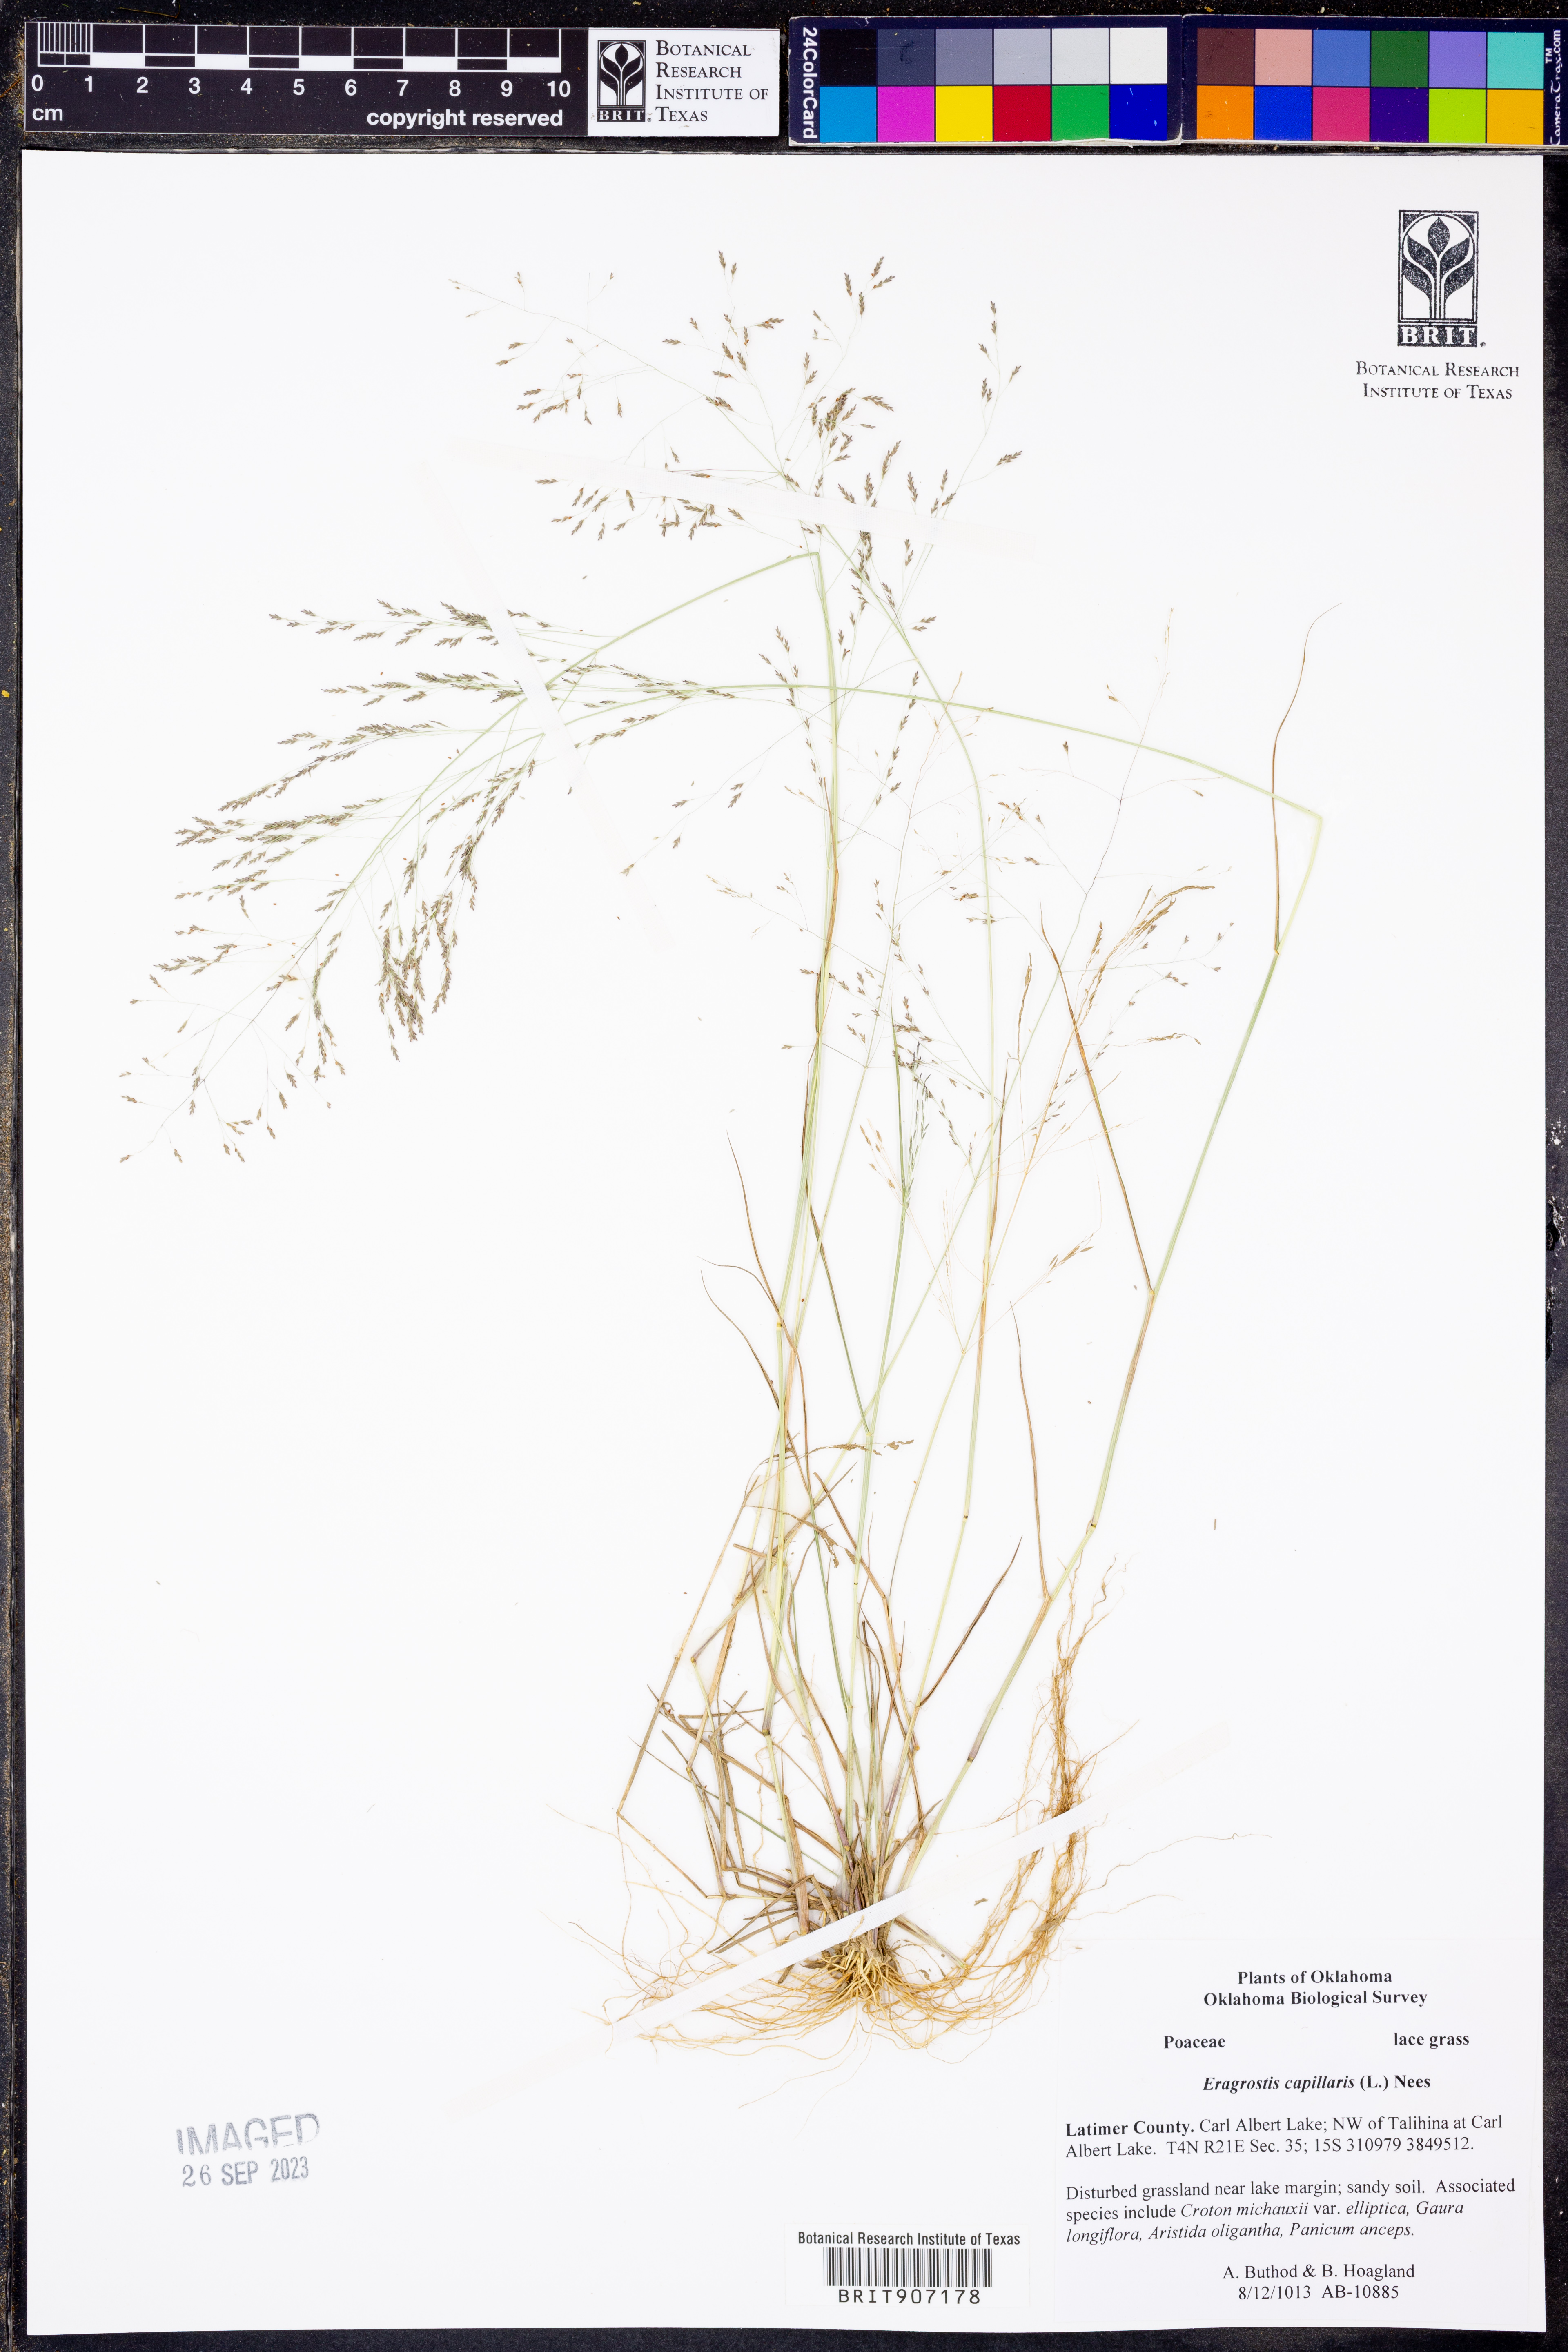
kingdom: Plantae
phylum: Tracheophyta
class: Liliopsida
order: Poales
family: Poaceae
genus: Eragrostis
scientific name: Eragrostis capillaris
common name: Hair-like lovegrass
